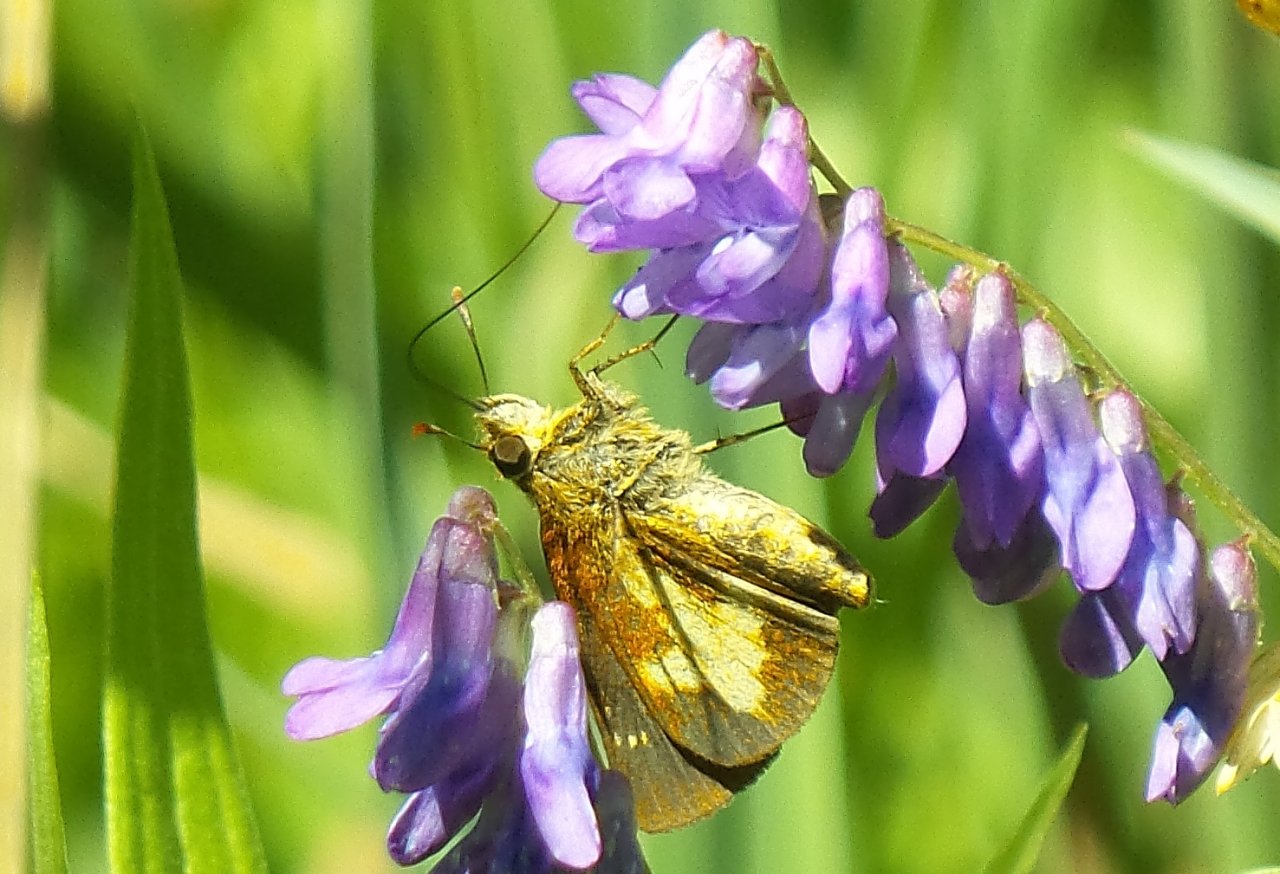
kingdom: Animalia
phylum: Arthropoda
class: Insecta
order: Lepidoptera
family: Hesperiidae
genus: Poanes
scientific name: Poanes massasoit
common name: Mulberry Wing
